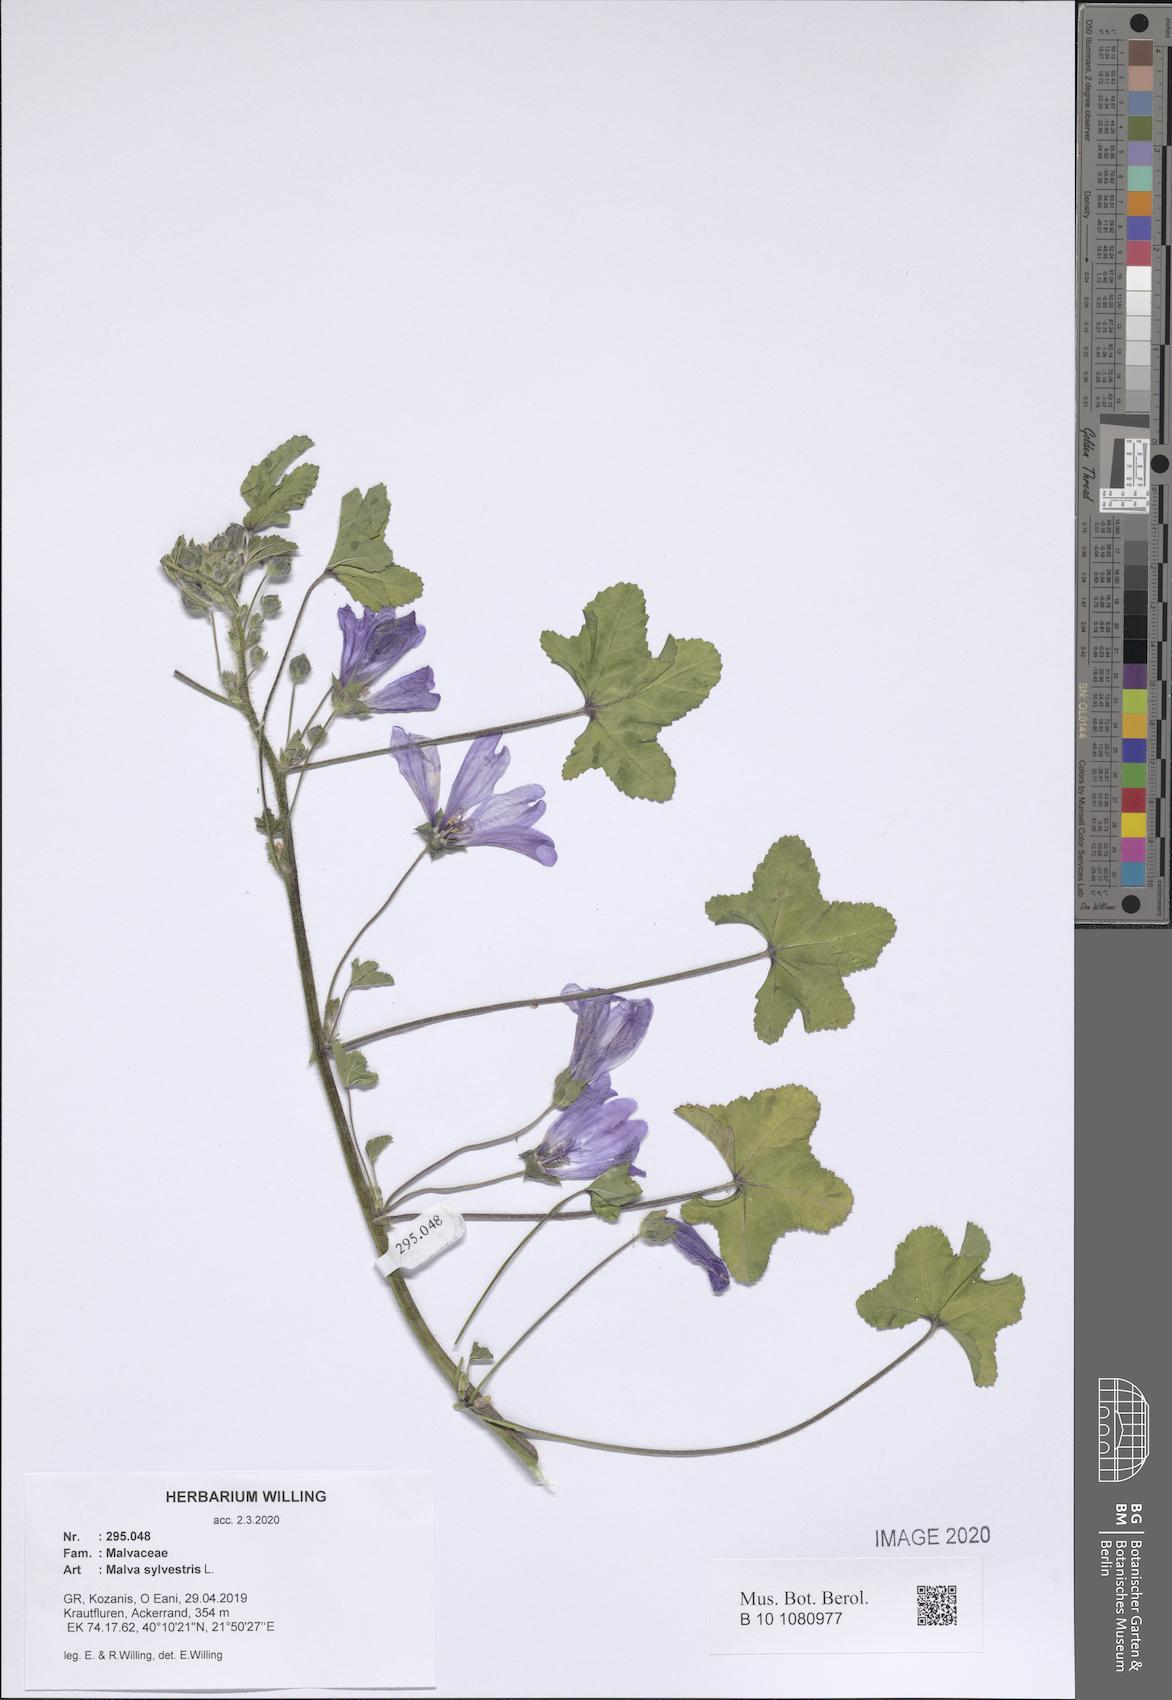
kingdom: Plantae
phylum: Tracheophyta
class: Magnoliopsida
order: Malvales
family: Malvaceae
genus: Malva
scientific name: Malva sylvestris
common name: Common mallow
